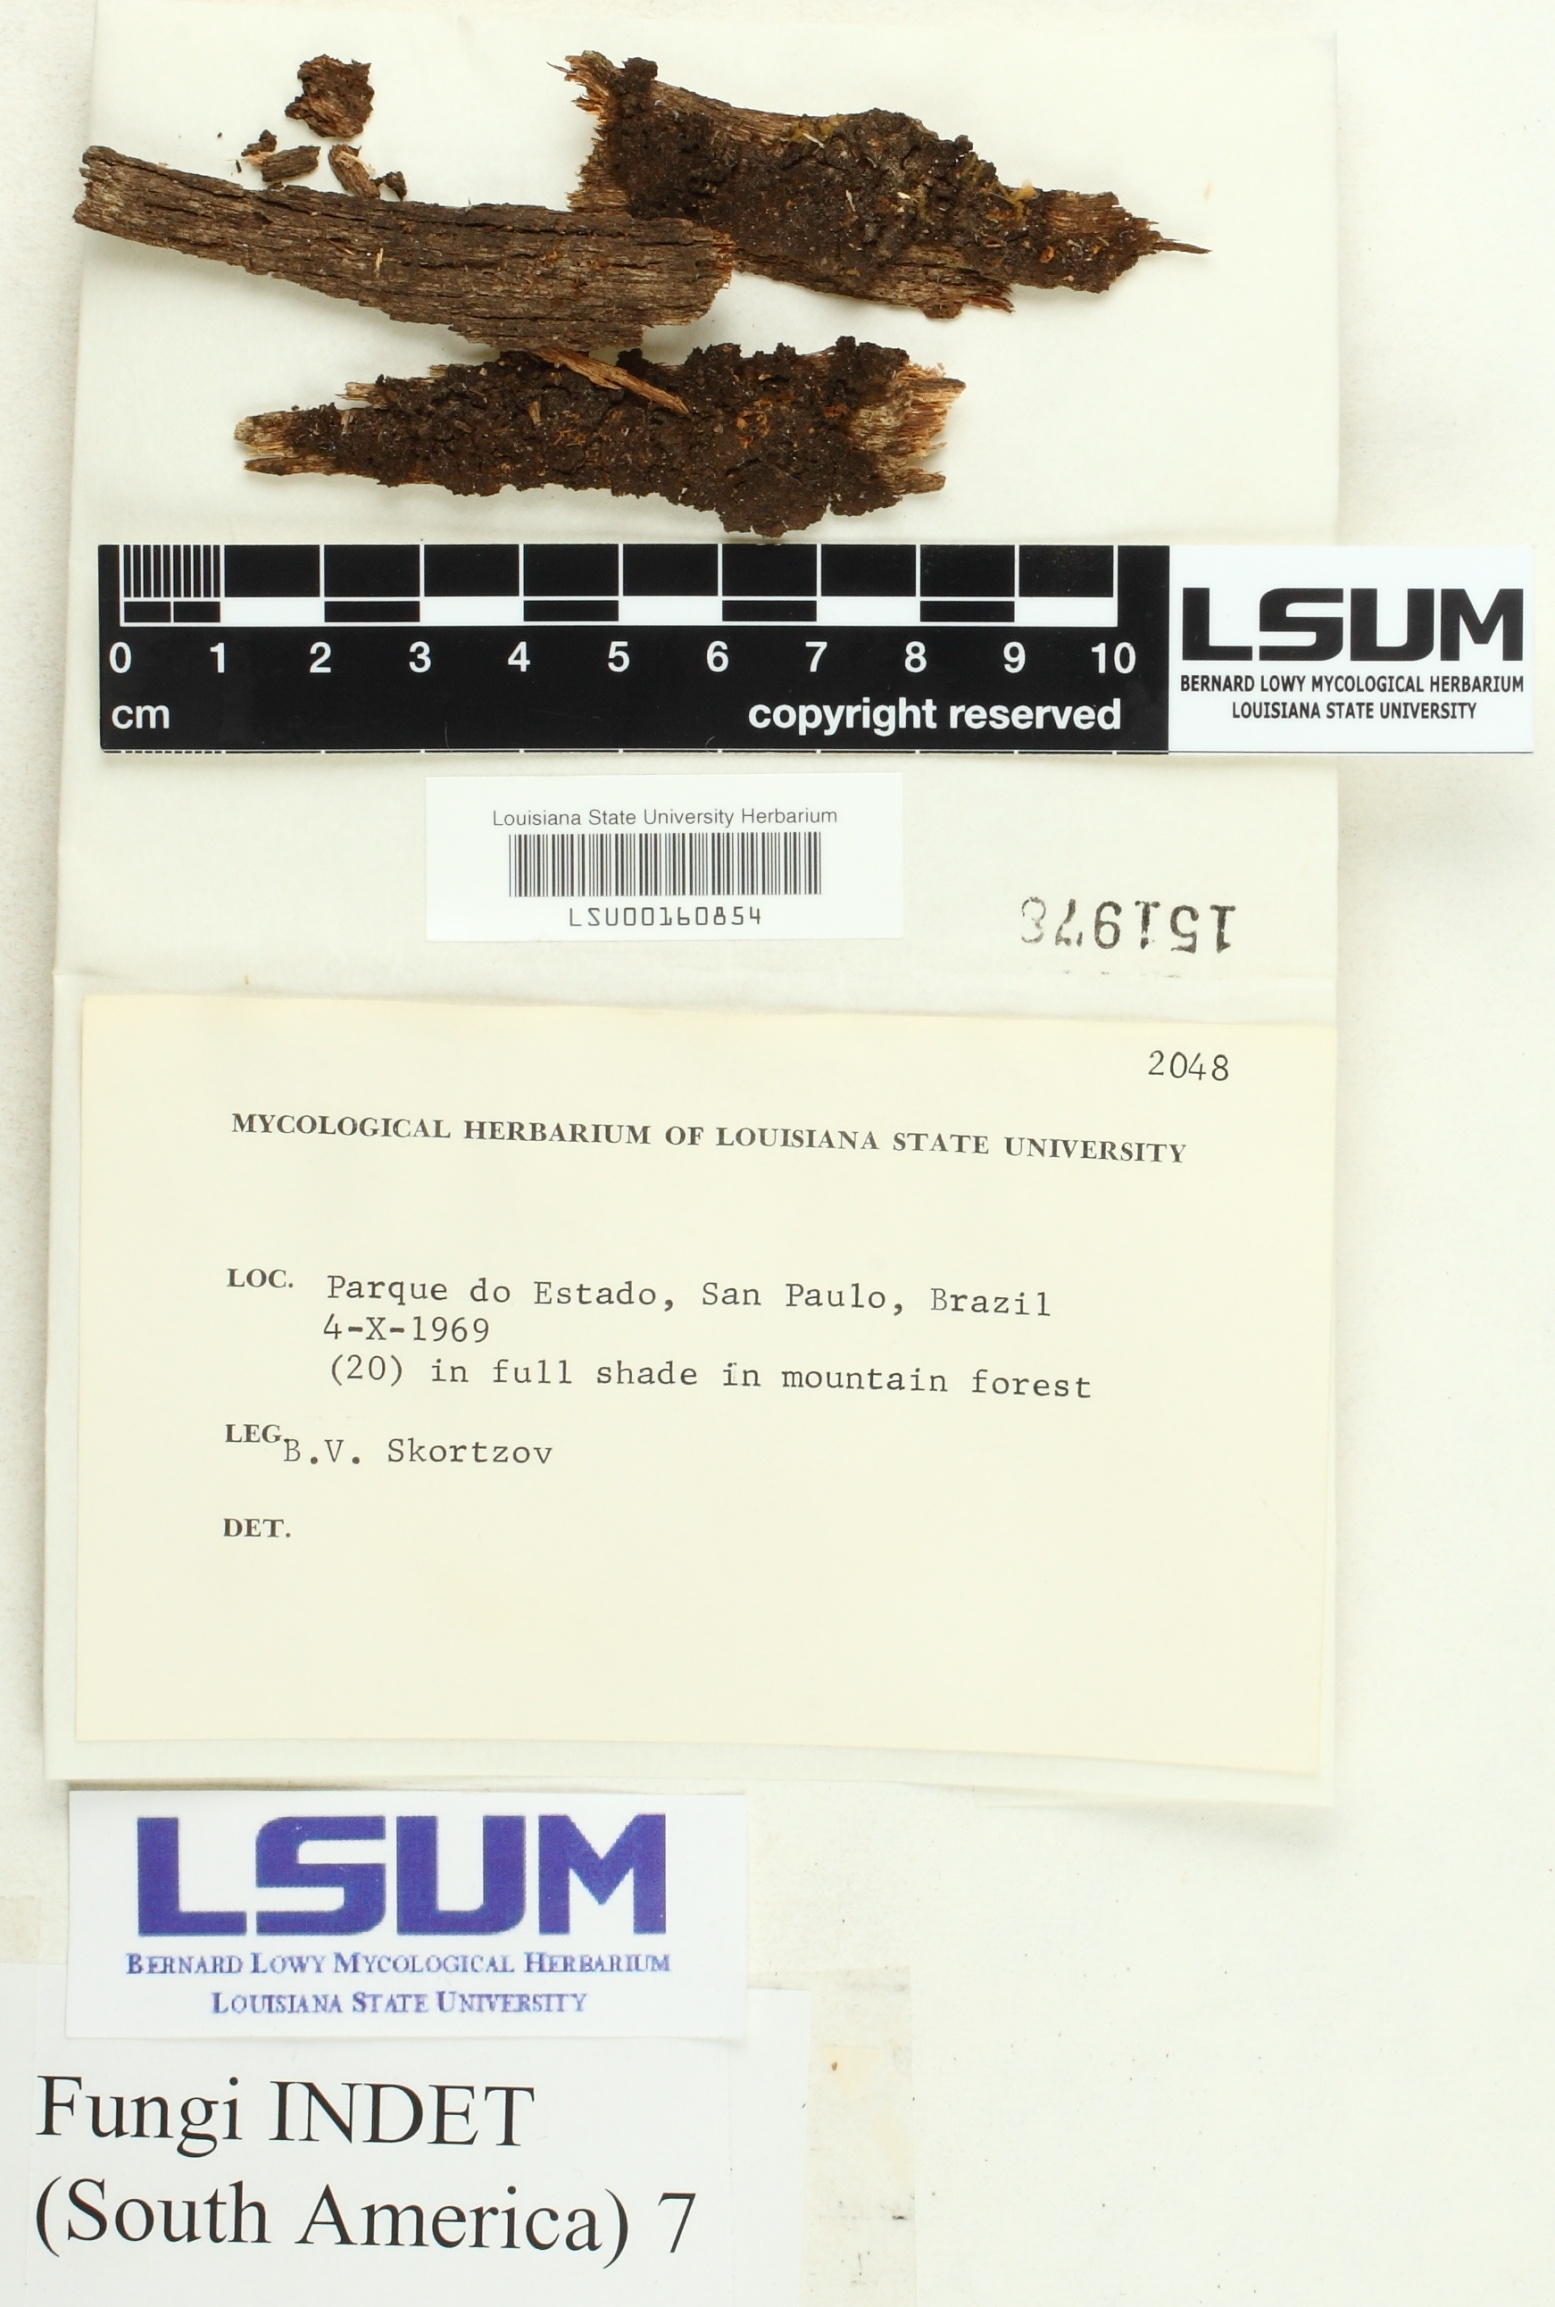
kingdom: Fungi
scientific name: Fungi
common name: Fungi
